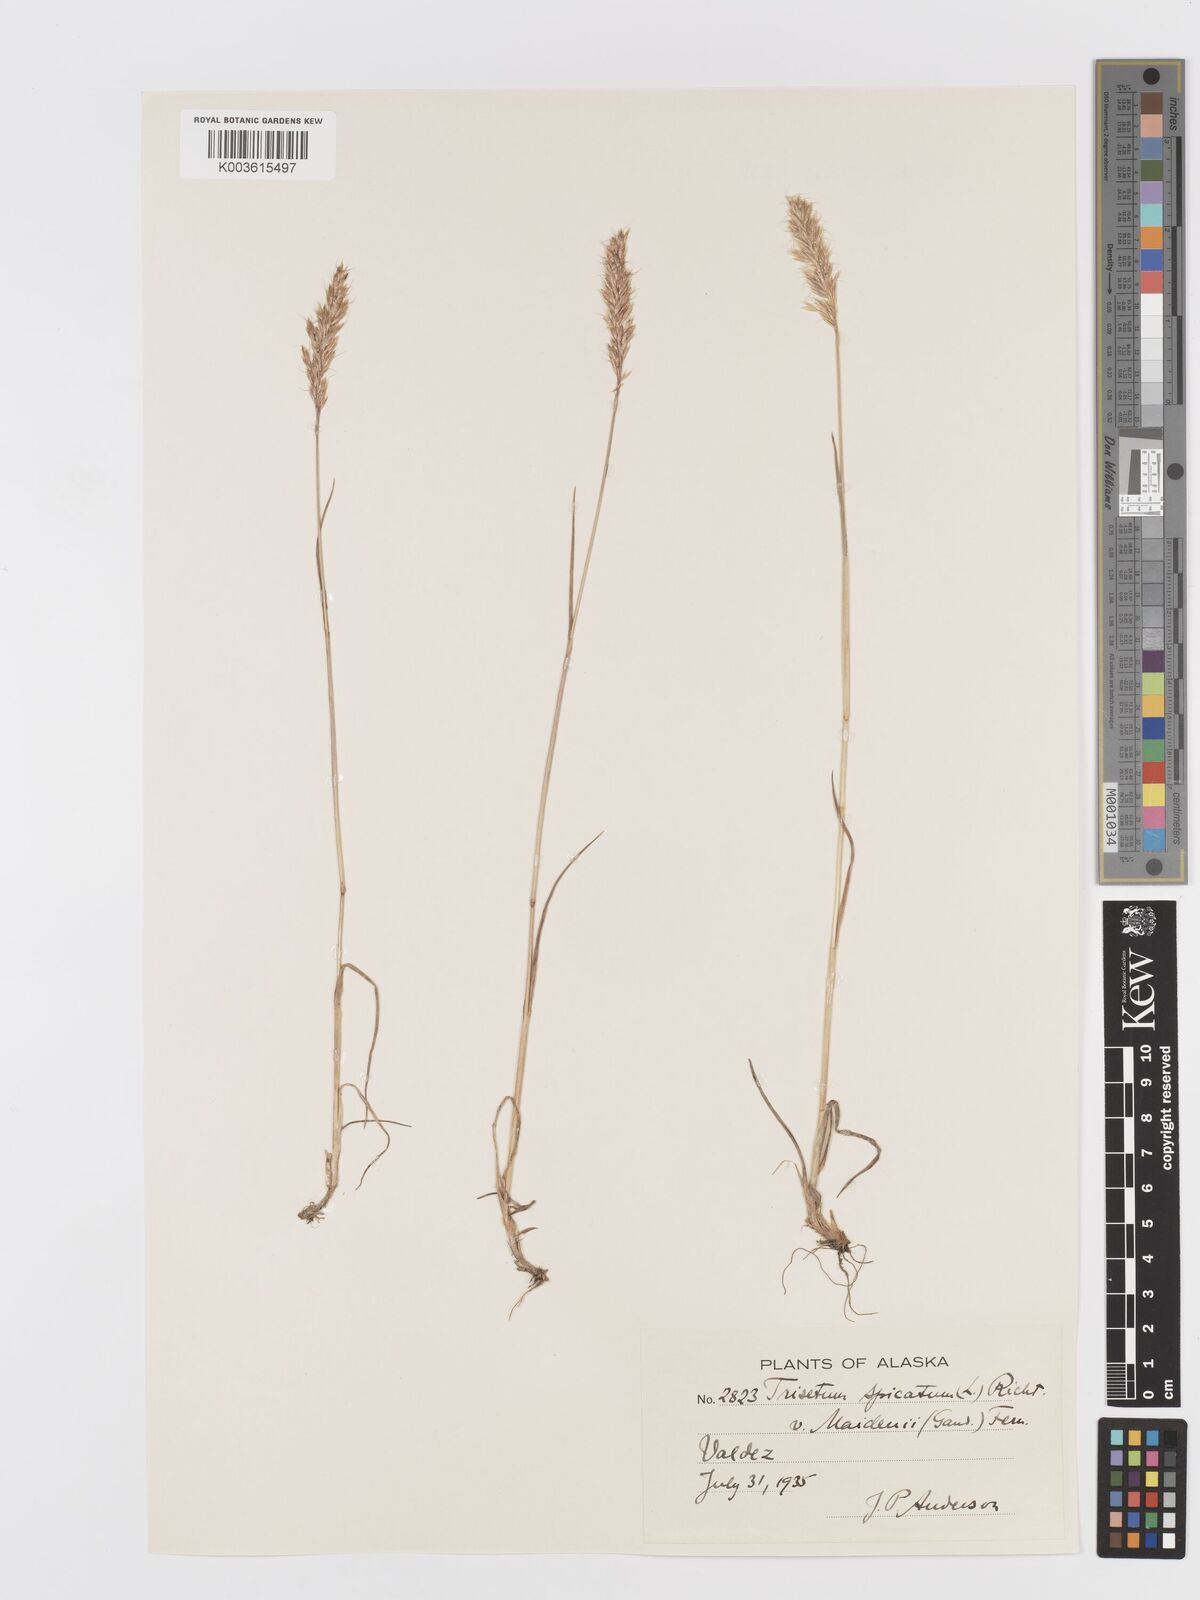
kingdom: Plantae
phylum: Tracheophyta
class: Liliopsida
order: Poales
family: Poaceae
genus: Koeleria
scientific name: Koeleria spicata
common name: Mountain trisetum
